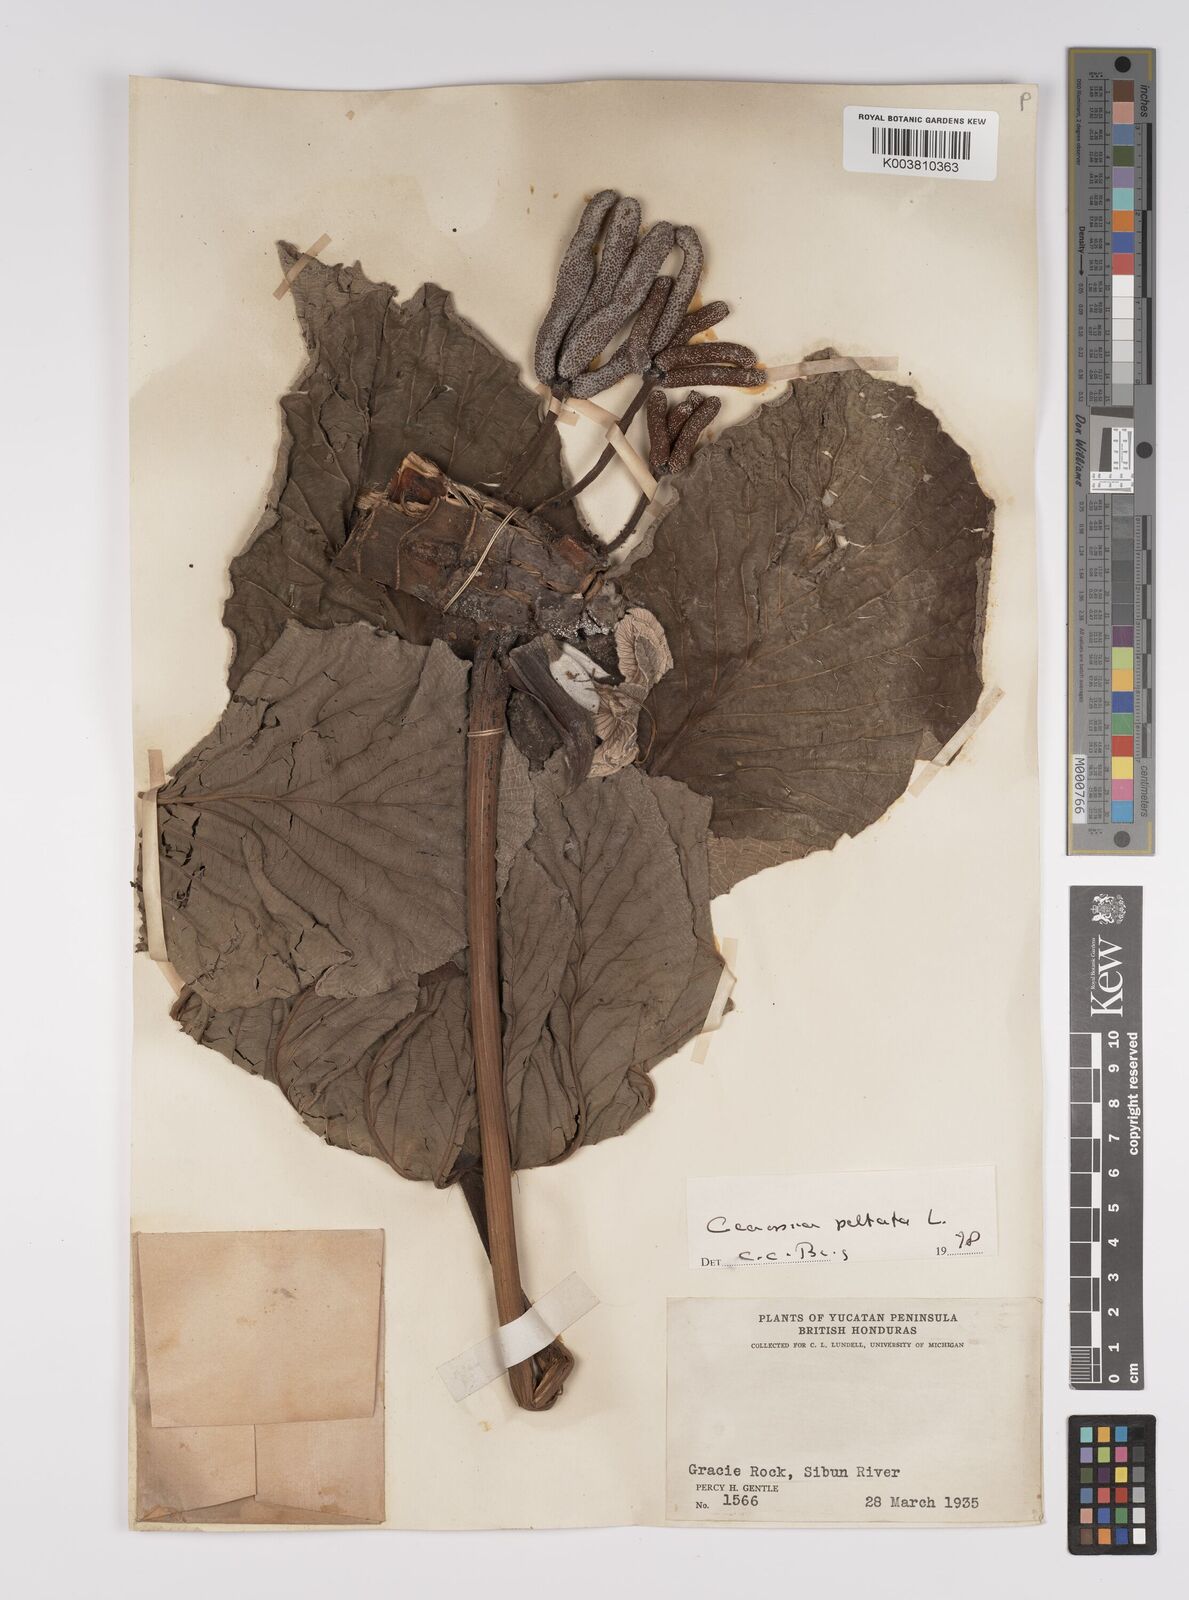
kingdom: Plantae
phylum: Tracheophyta
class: Magnoliopsida
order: Rosales
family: Urticaceae
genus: Cecropia
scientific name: Cecropia peltata
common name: Trumpet-tree
